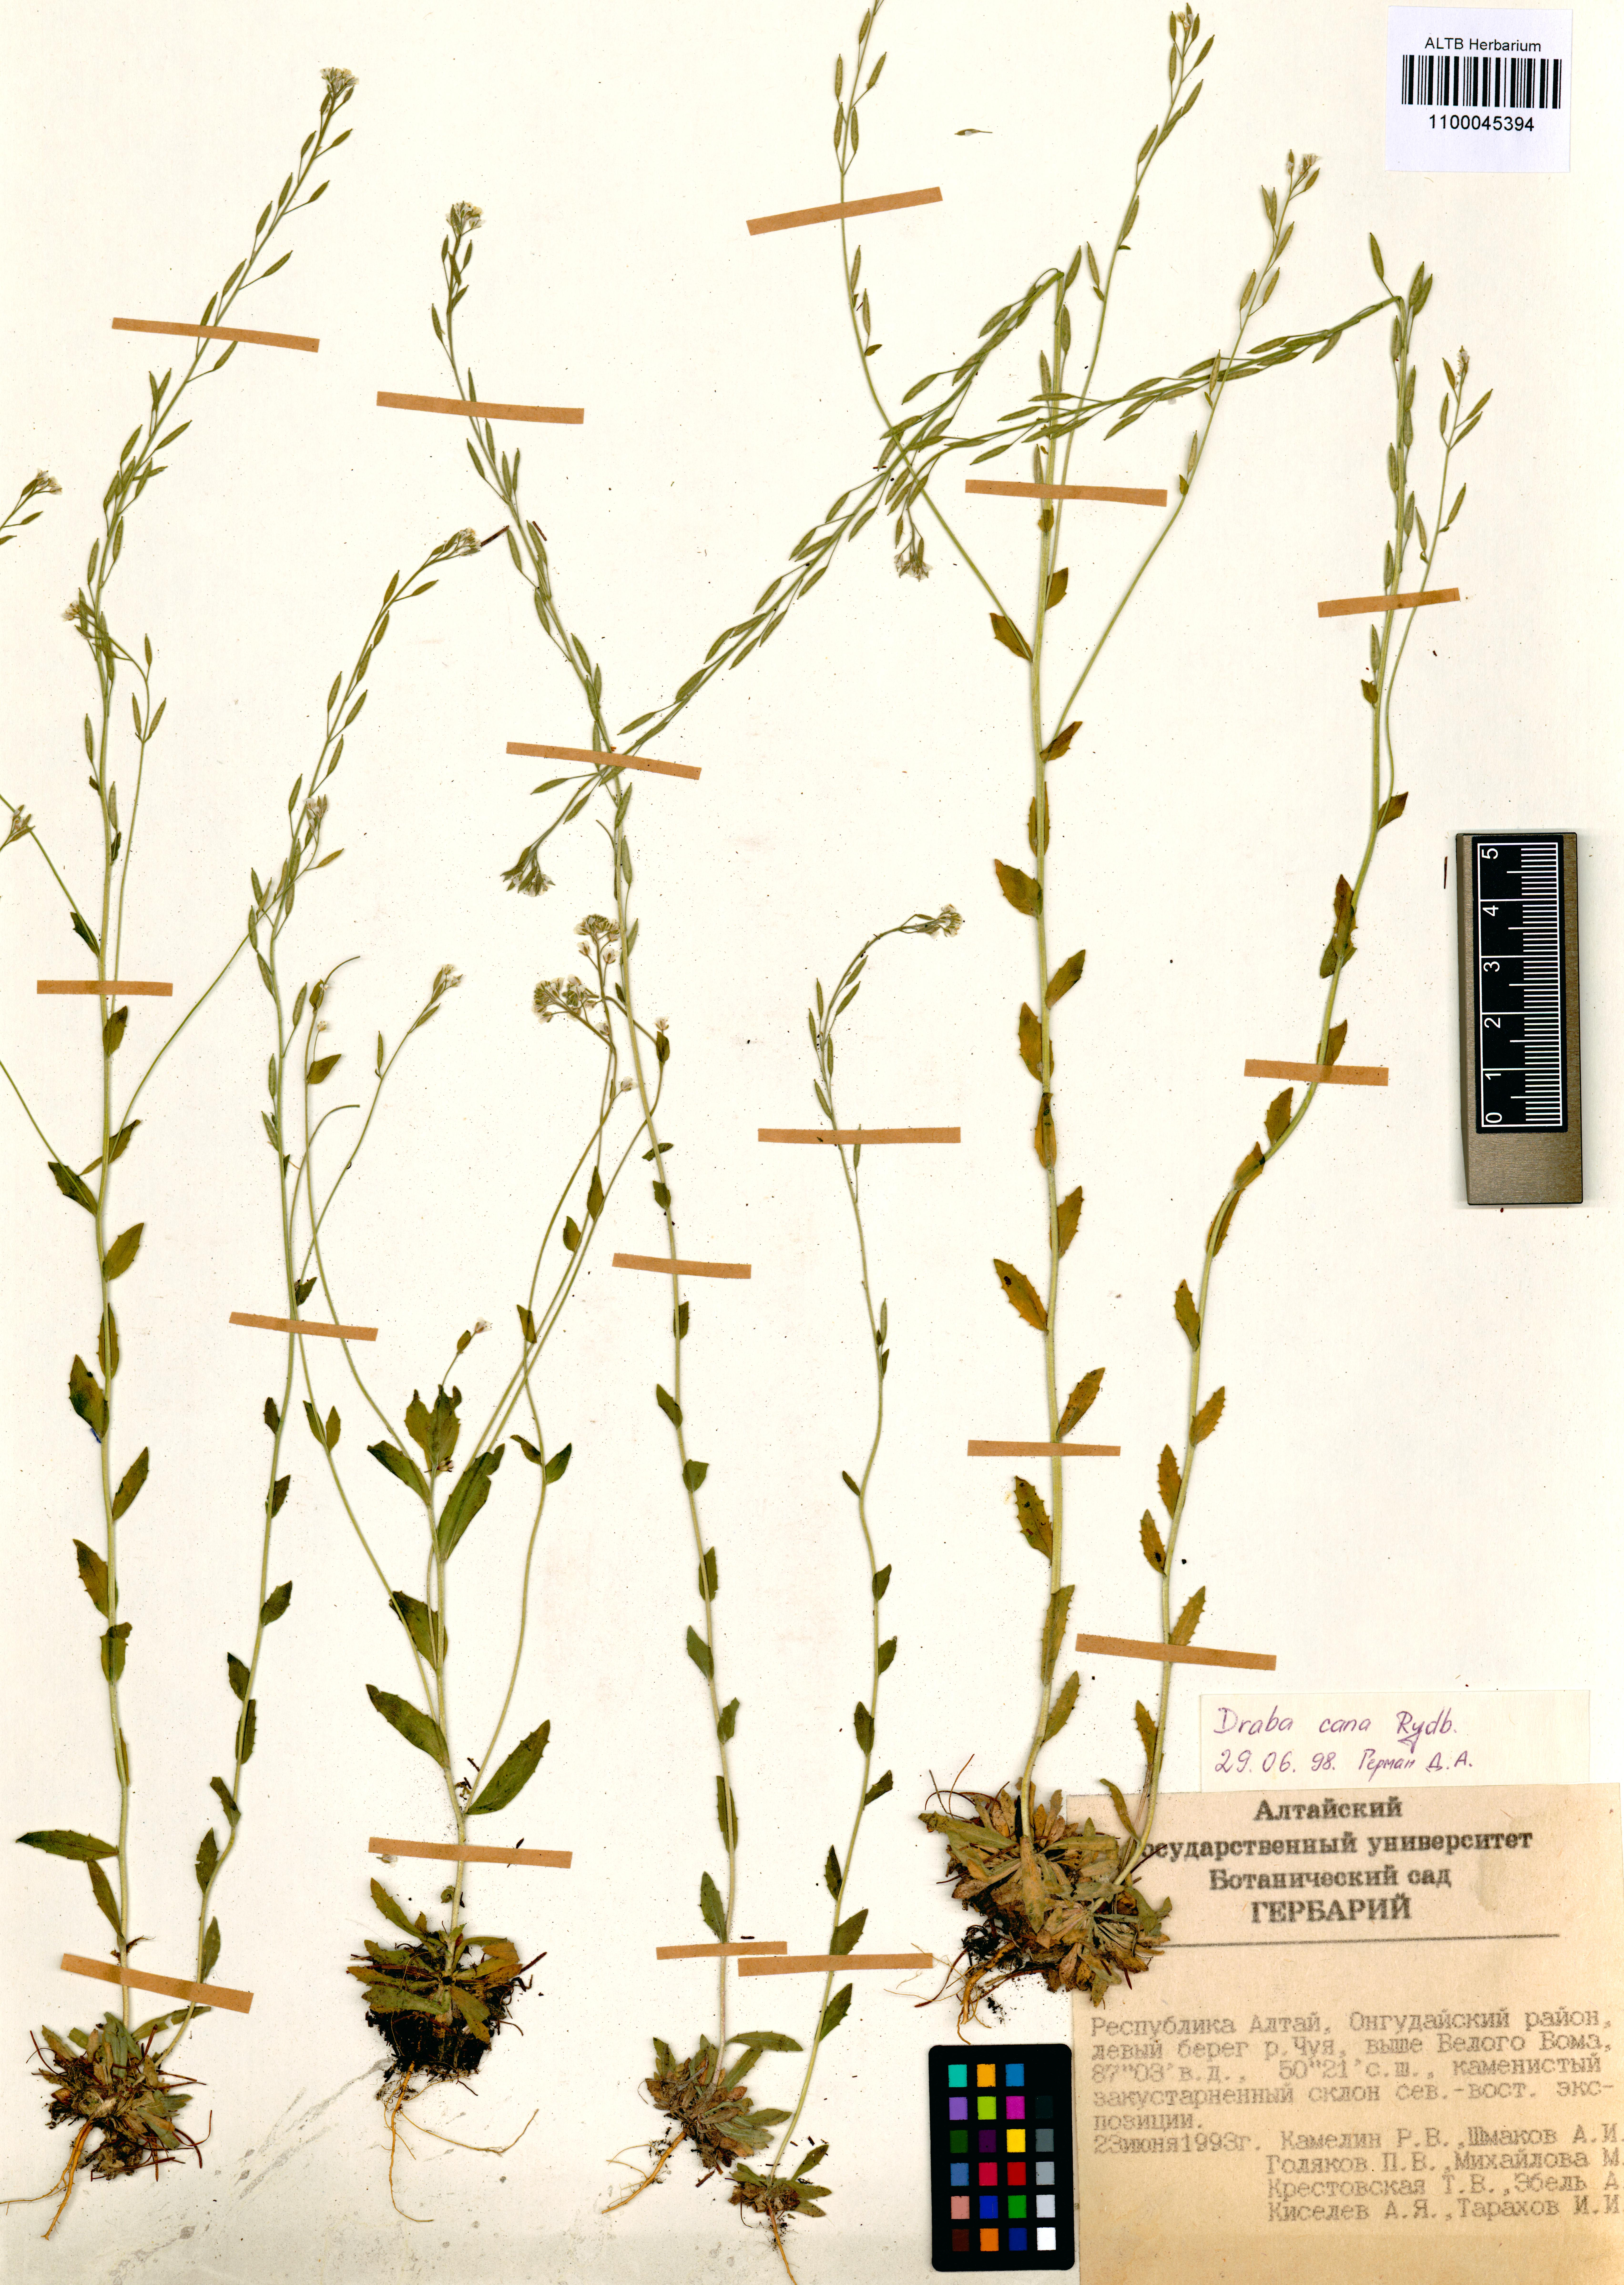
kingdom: Plantae
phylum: Tracheophyta
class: Magnoliopsida
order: Brassicales
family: Brassicaceae
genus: Draba
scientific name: Draba cana
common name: Hoary draba
